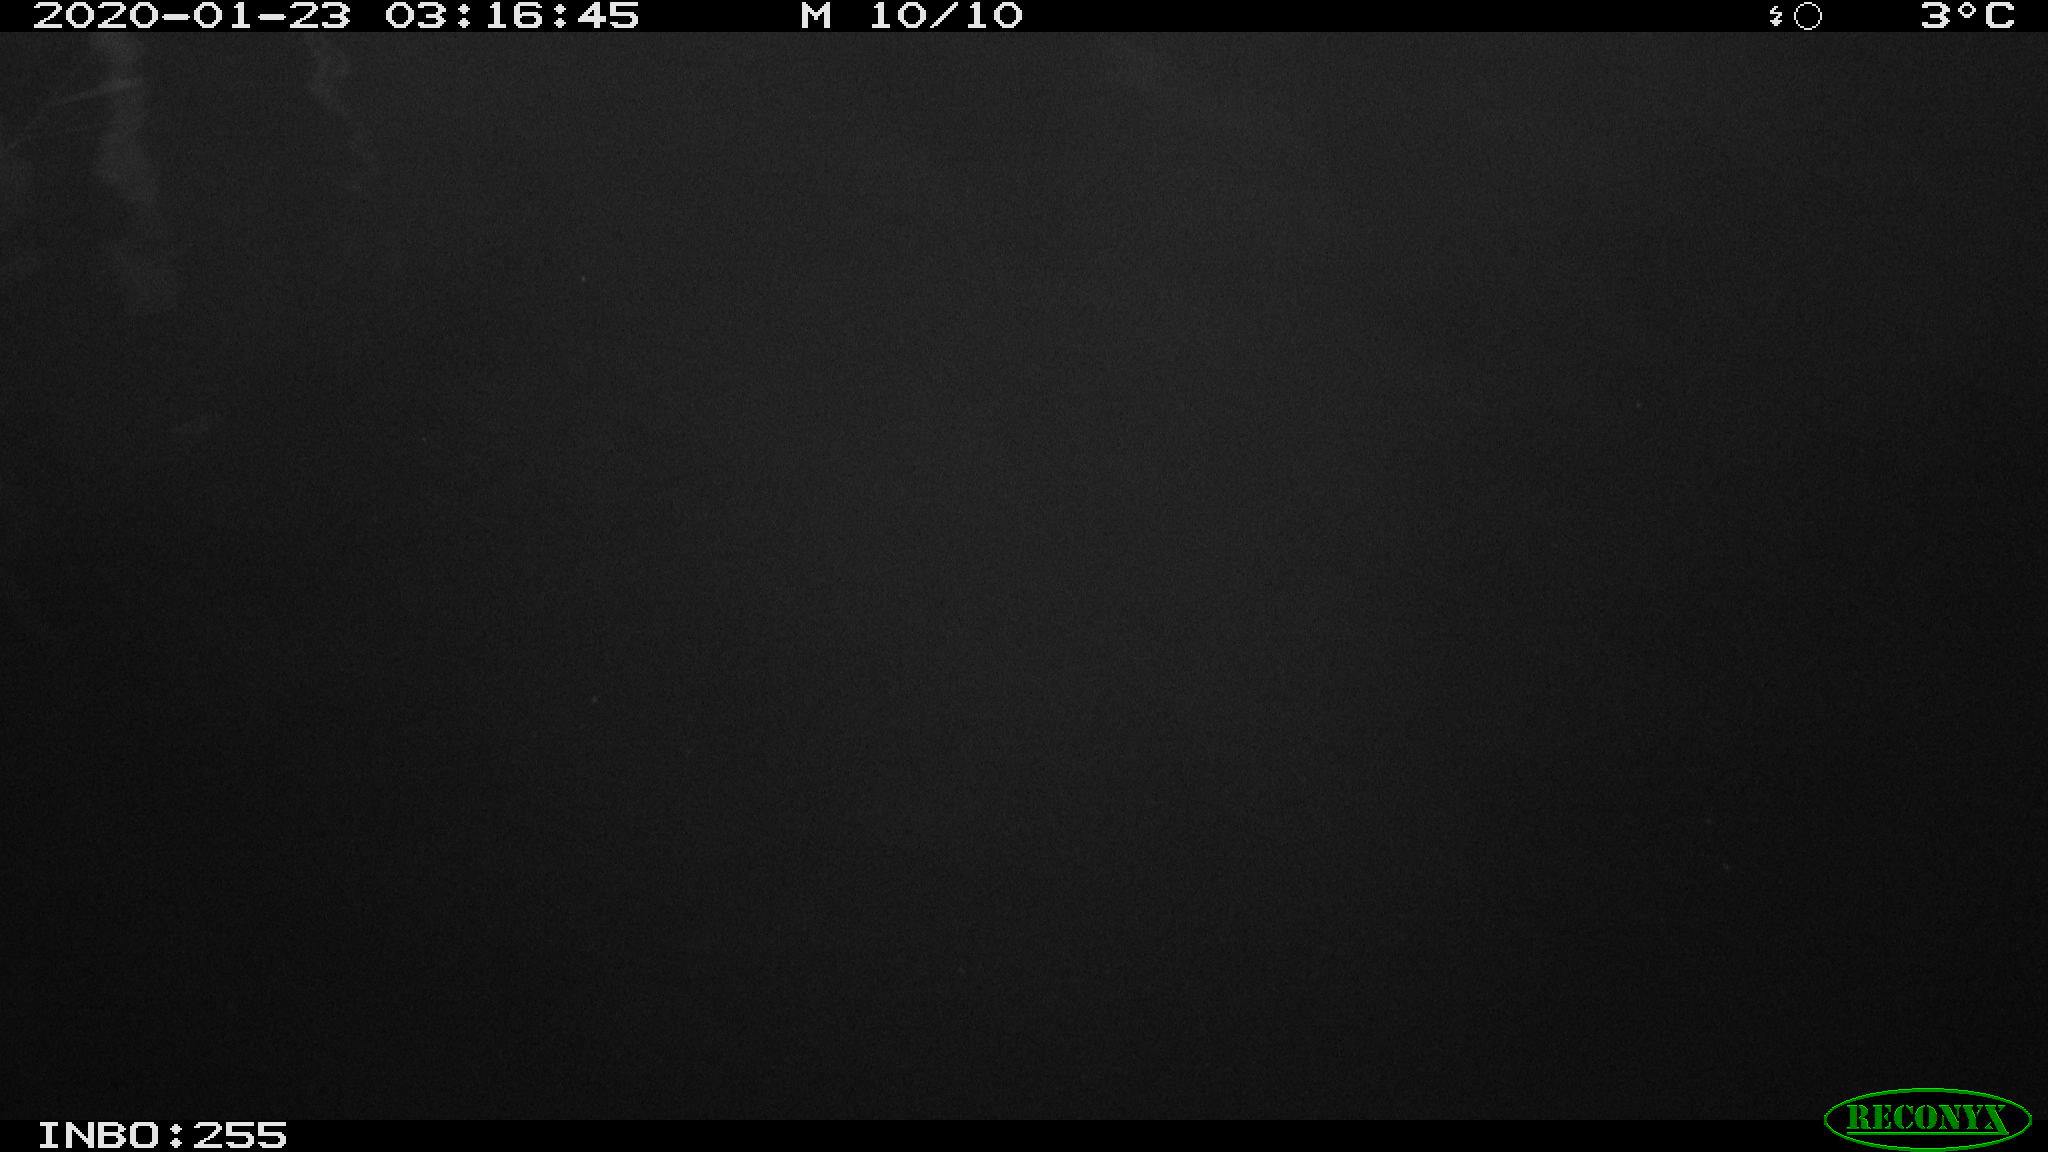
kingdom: Animalia
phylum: Chordata
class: Aves
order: Anseriformes
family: Anatidae
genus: Anas
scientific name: Anas platyrhynchos
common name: Mallard
